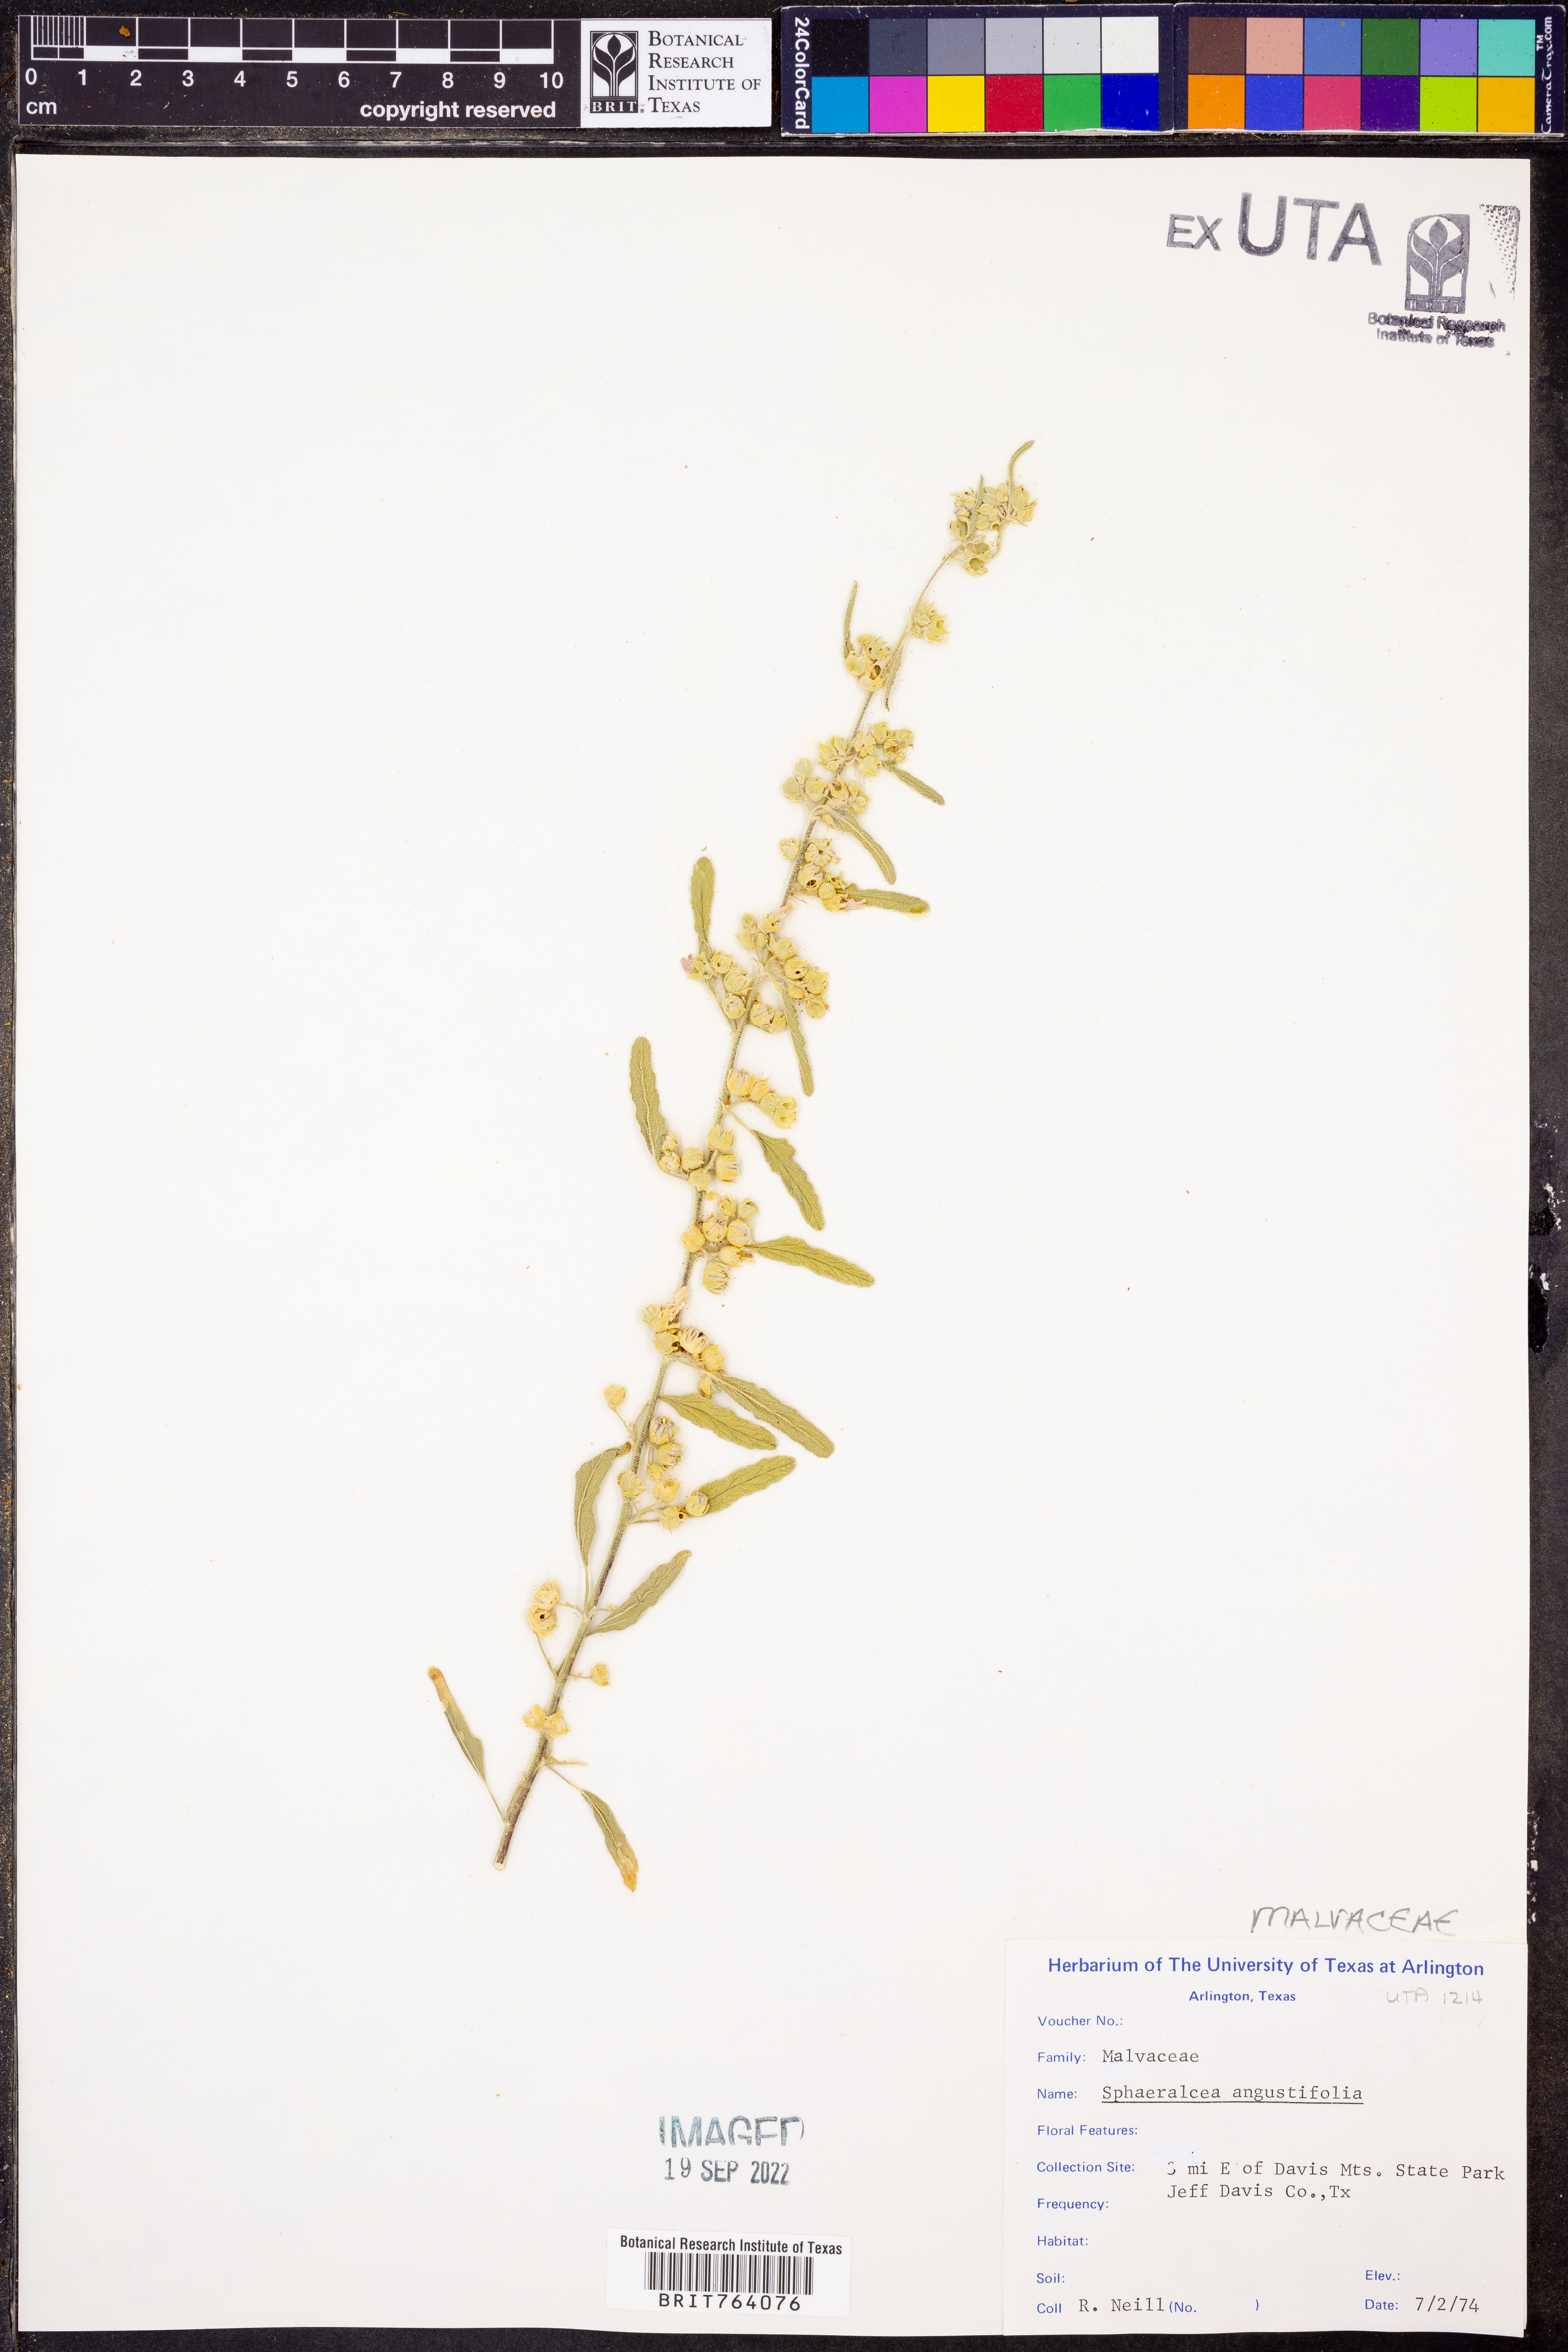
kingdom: Plantae
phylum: Tracheophyta
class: Magnoliopsida
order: Malvales
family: Malvaceae
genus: Sphaeralcea
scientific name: Sphaeralcea angustifolia
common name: Copper globe-mallow
